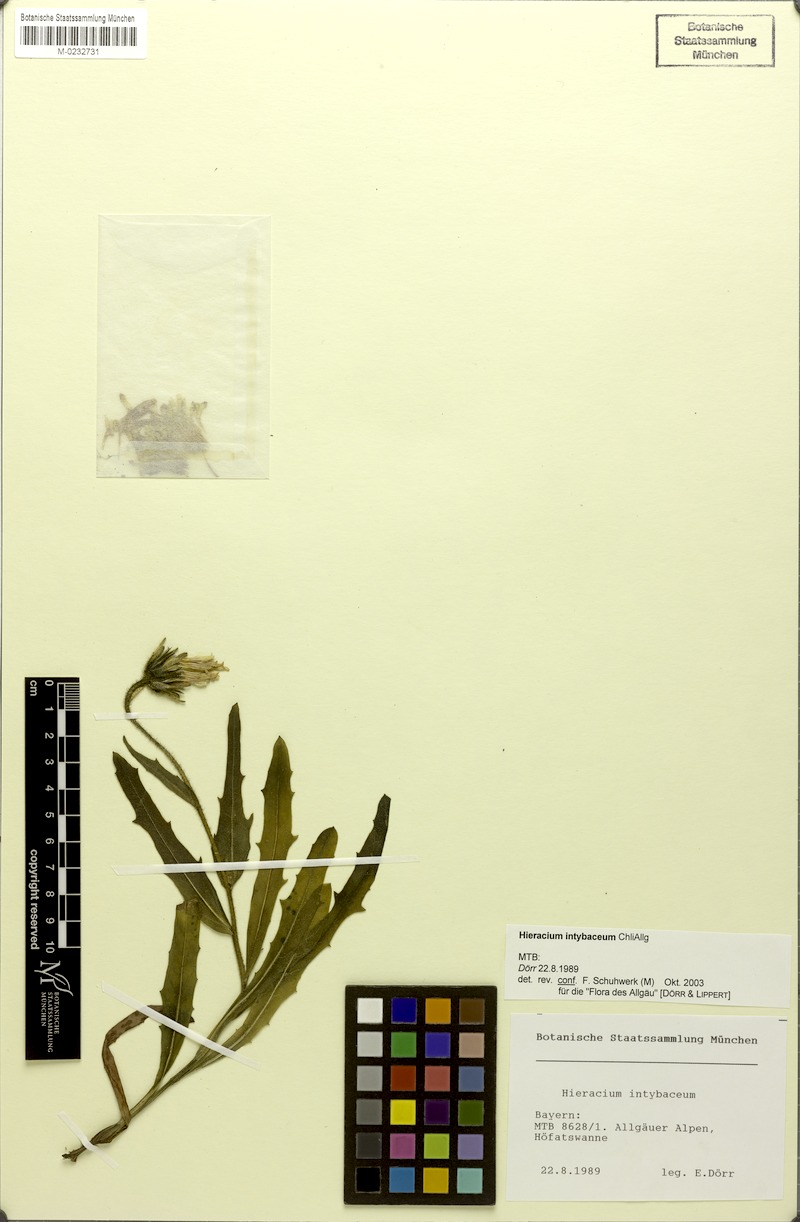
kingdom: Plantae
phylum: Tracheophyta
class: Magnoliopsida
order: Asterales
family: Asteraceae
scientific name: Asteraceae
